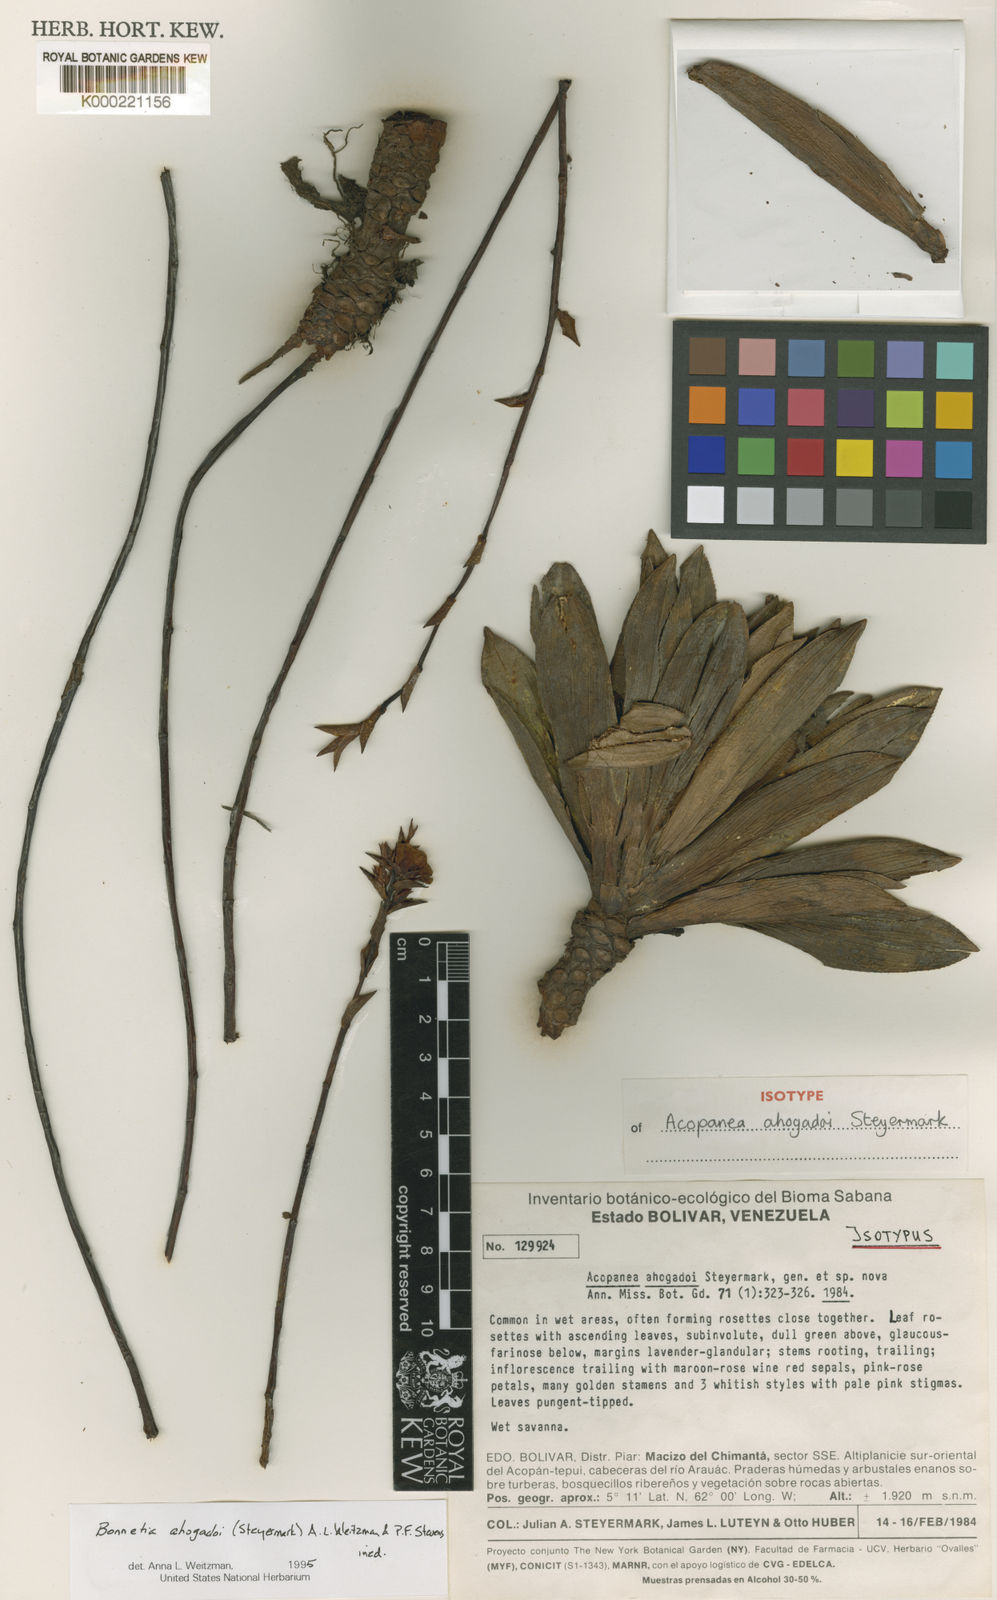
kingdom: Plantae
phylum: Tracheophyta
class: Magnoliopsida
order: Malpighiales
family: Bonnetiaceae
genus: Bonnetia
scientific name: Bonnetia ahogadoi
